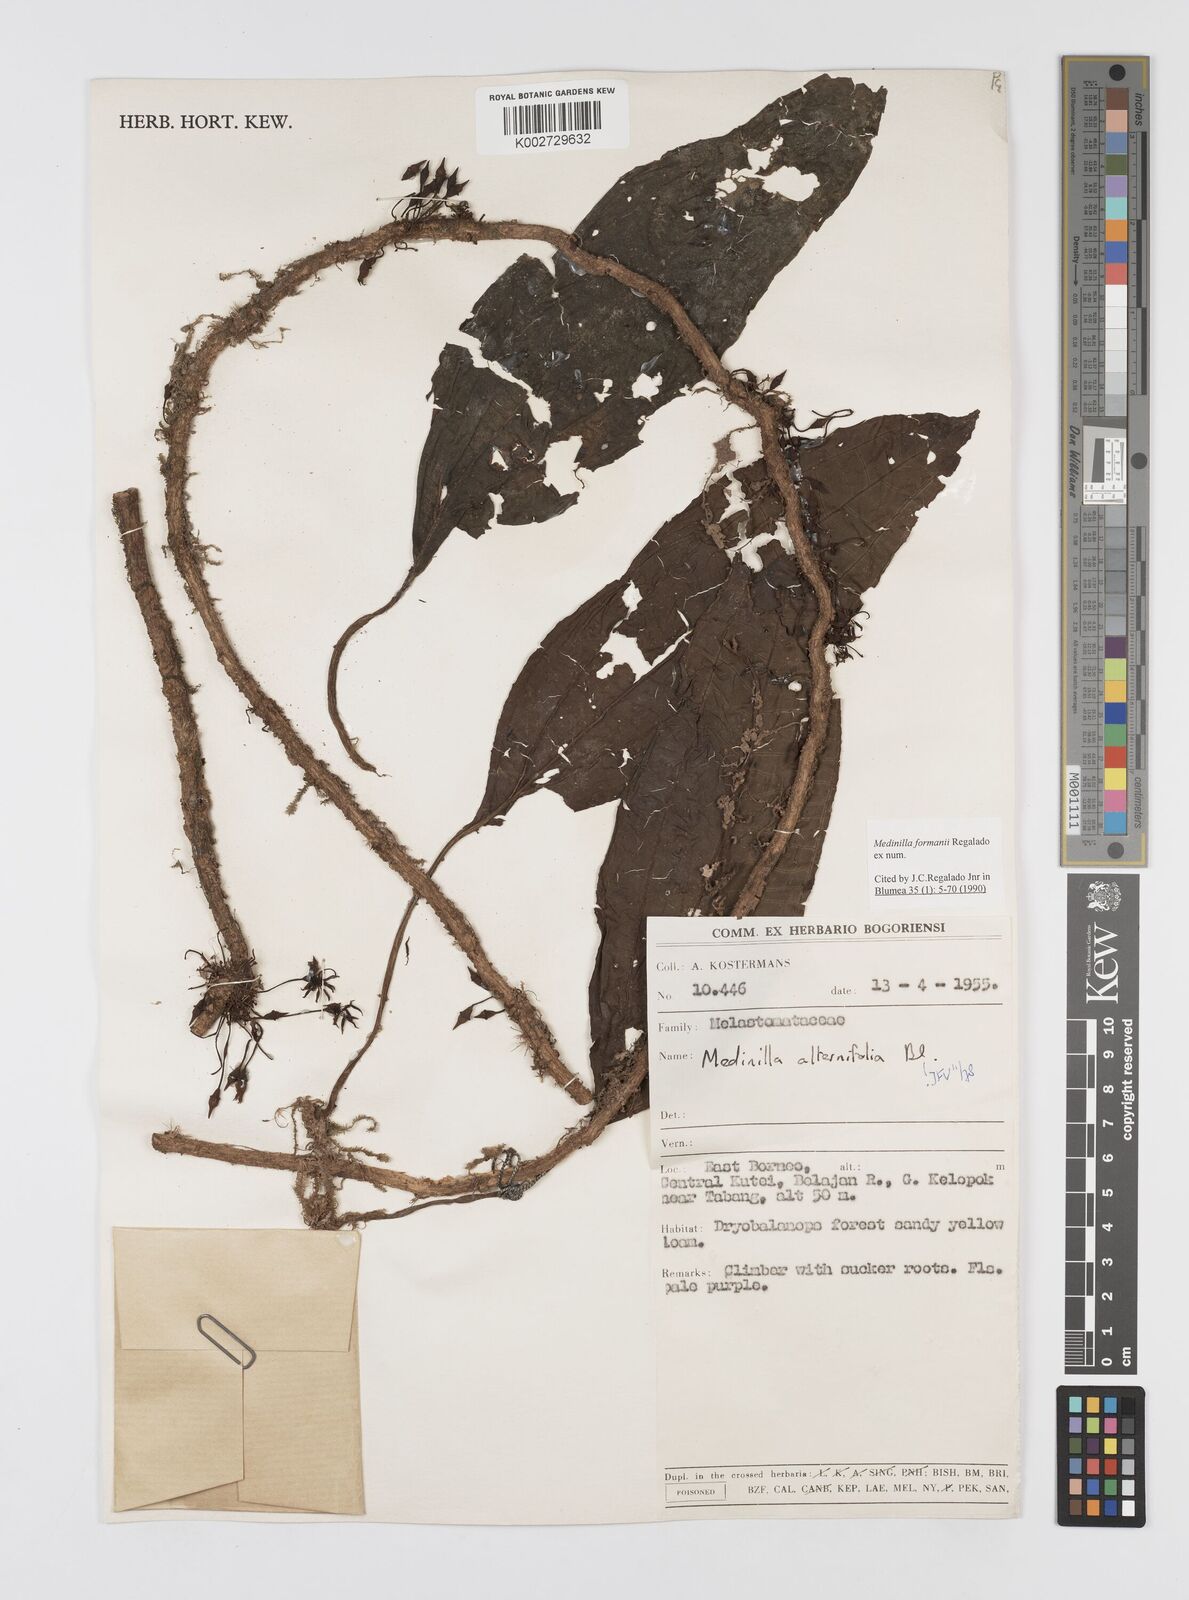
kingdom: Plantae
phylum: Tracheophyta
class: Magnoliopsida
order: Myrtales
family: Melastomataceae
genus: Heteroblemma
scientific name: Heteroblemma formanii
